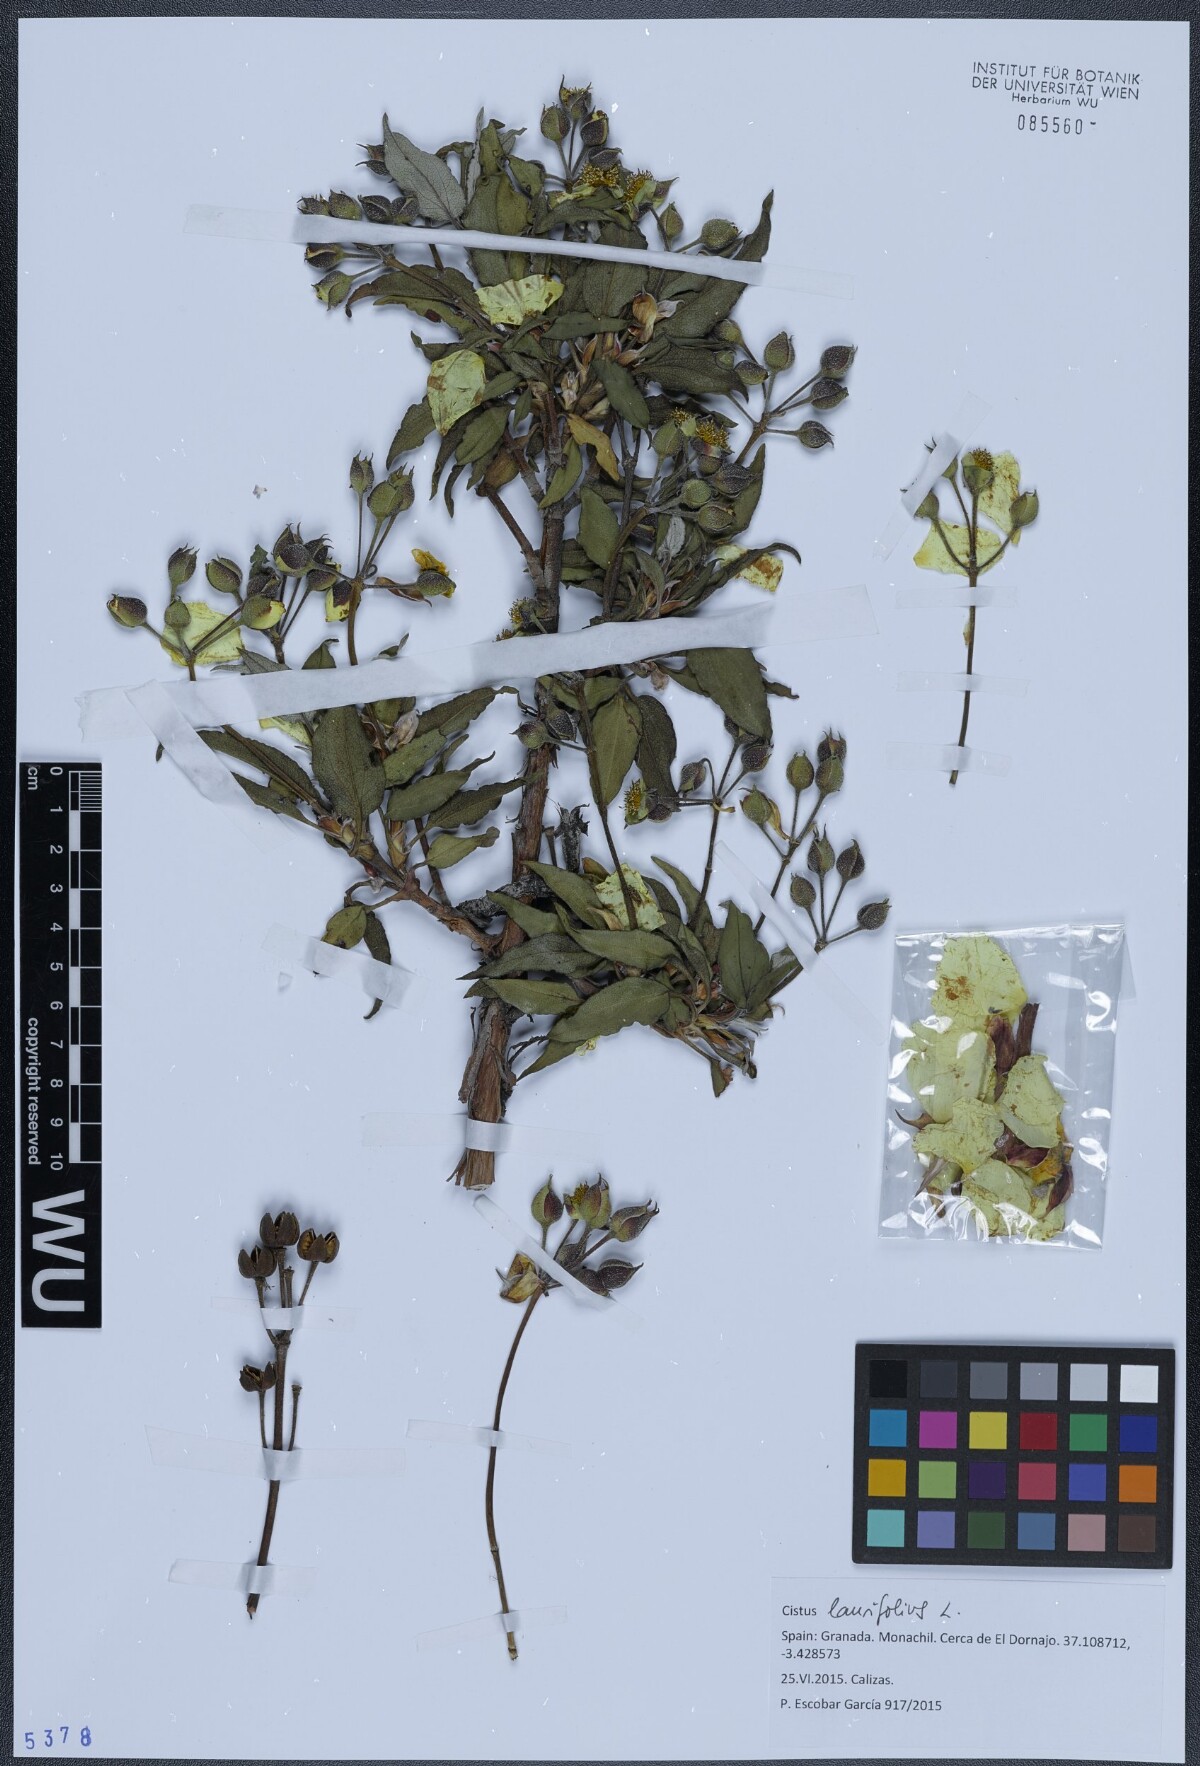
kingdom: Plantae
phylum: Tracheophyta
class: Magnoliopsida
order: Malvales
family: Cistaceae
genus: Cistus
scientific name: Cistus laurifolius
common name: Laurel-leaved cistus
